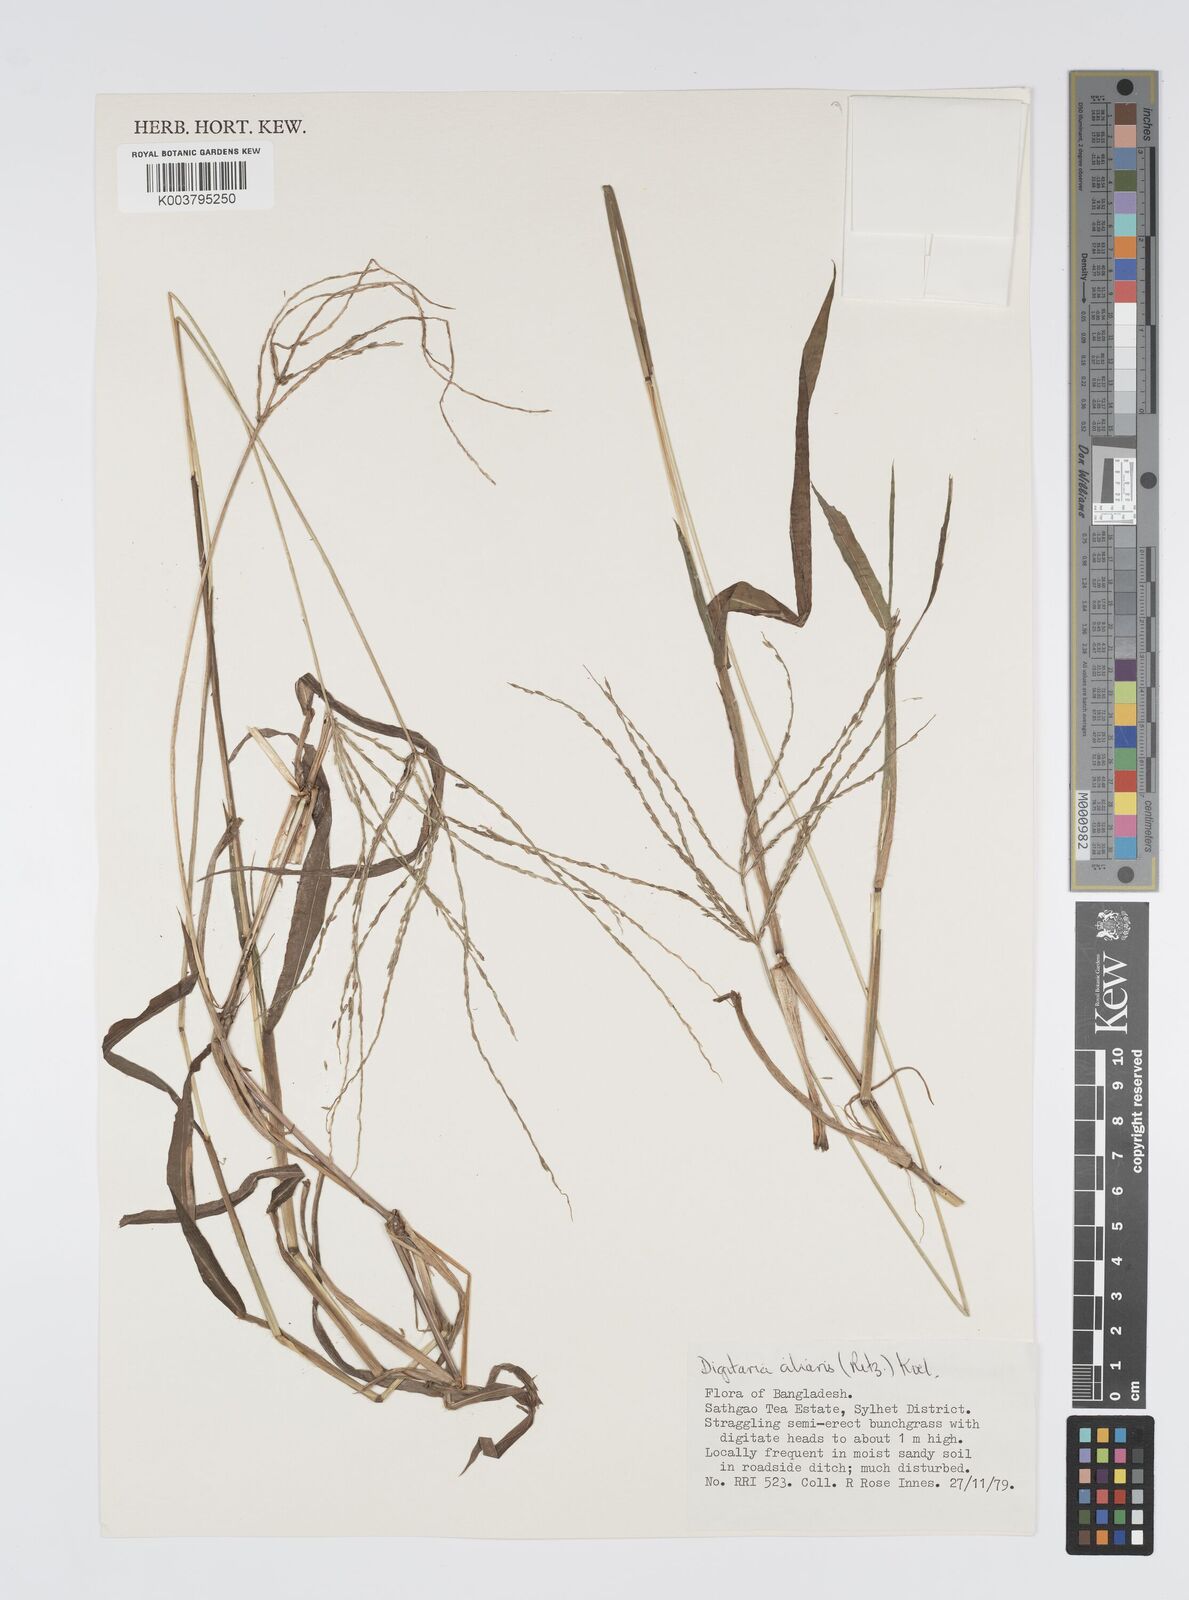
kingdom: Plantae
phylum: Tracheophyta
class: Liliopsida
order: Poales
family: Poaceae
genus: Digitaria
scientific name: Digitaria ciliaris
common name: Tropical finger-grass
